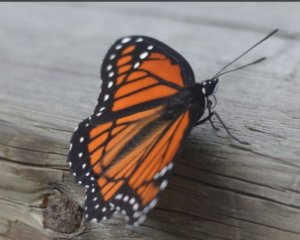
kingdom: Animalia
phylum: Arthropoda
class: Insecta
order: Lepidoptera
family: Nymphalidae
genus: Limenitis
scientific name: Limenitis archippus
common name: Viceroy
